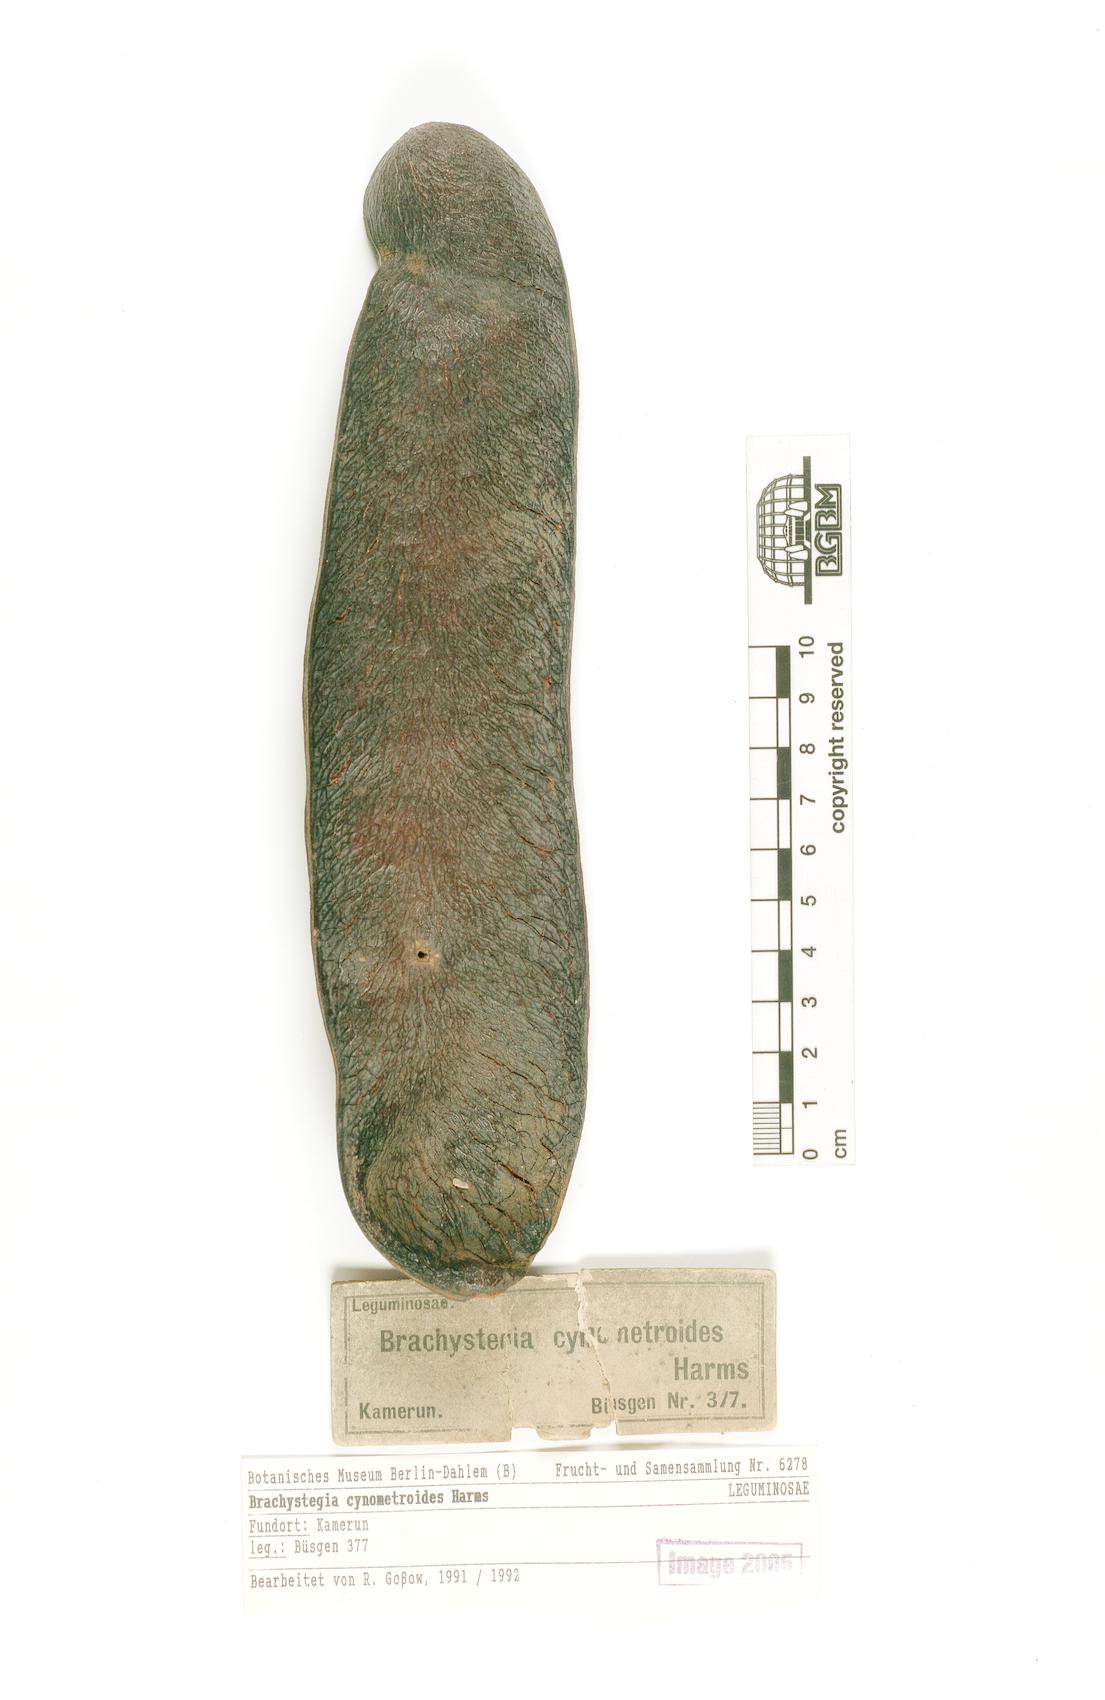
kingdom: Plantae
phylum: Tracheophyta
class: Magnoliopsida
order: Fabales
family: Fabaceae
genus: Brachystegia
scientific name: Brachystegia cynometroides
